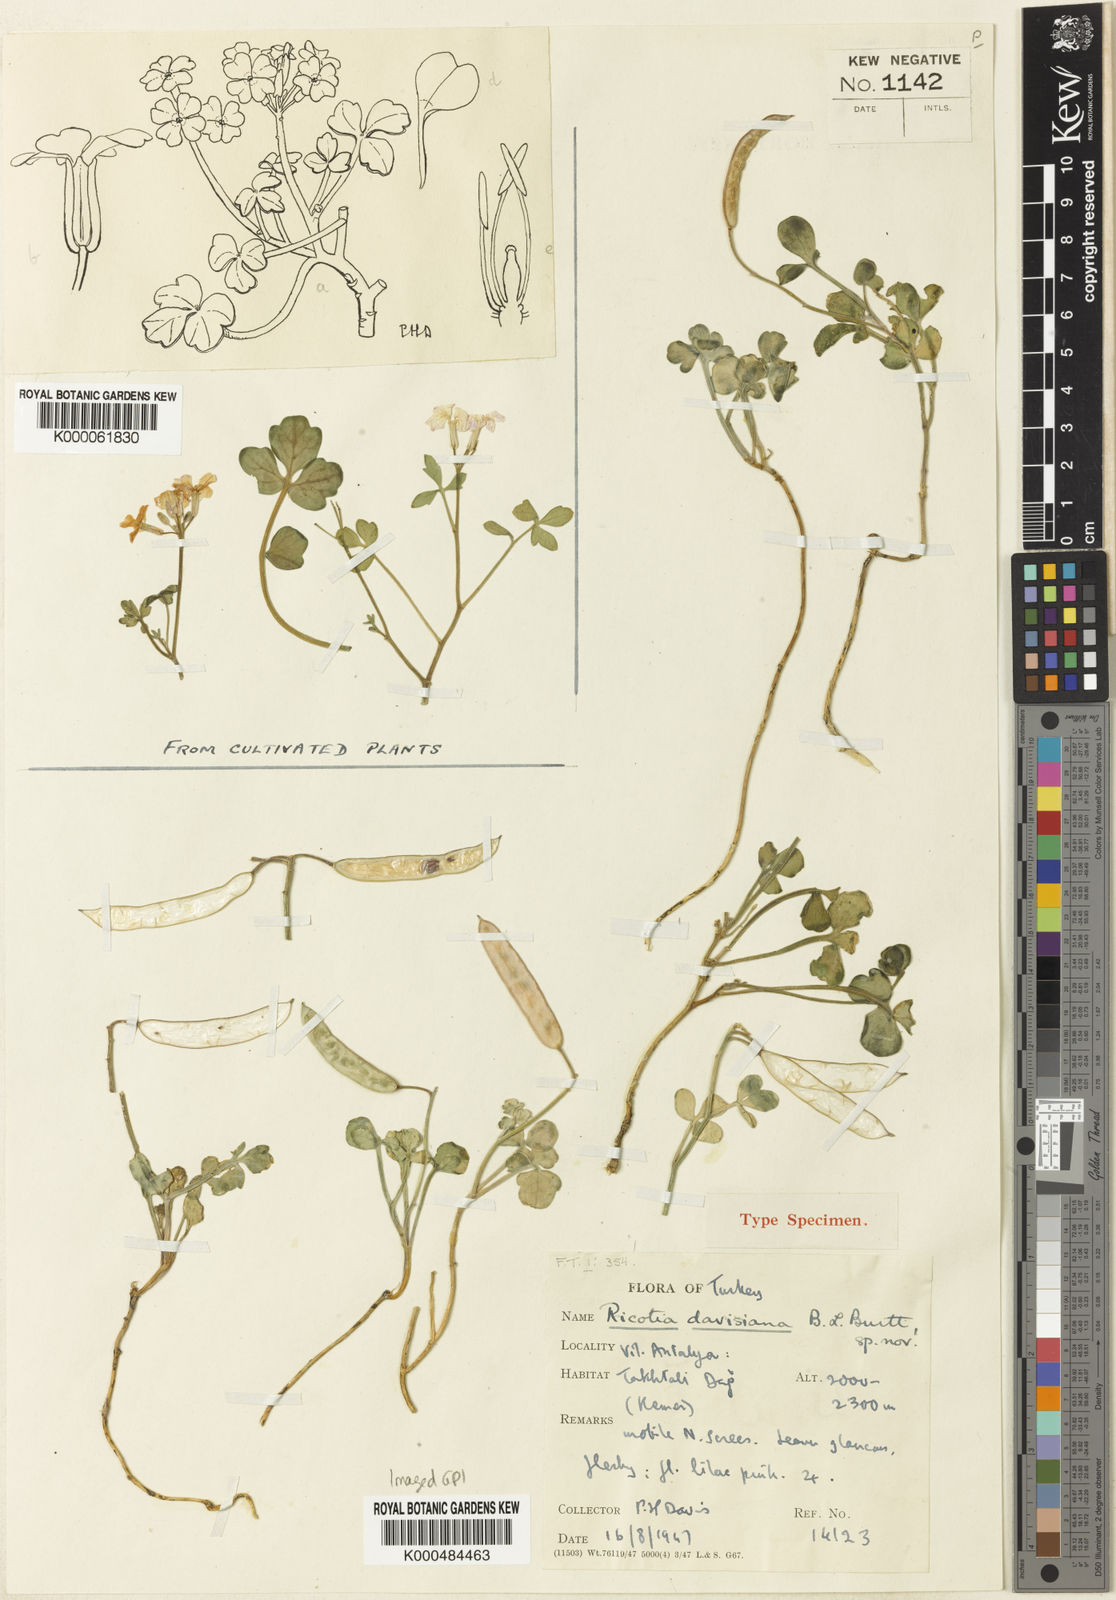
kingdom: Plantae
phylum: Tracheophyta
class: Magnoliopsida
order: Brassicales
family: Brassicaceae
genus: Ricotia
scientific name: Ricotia davisiana
